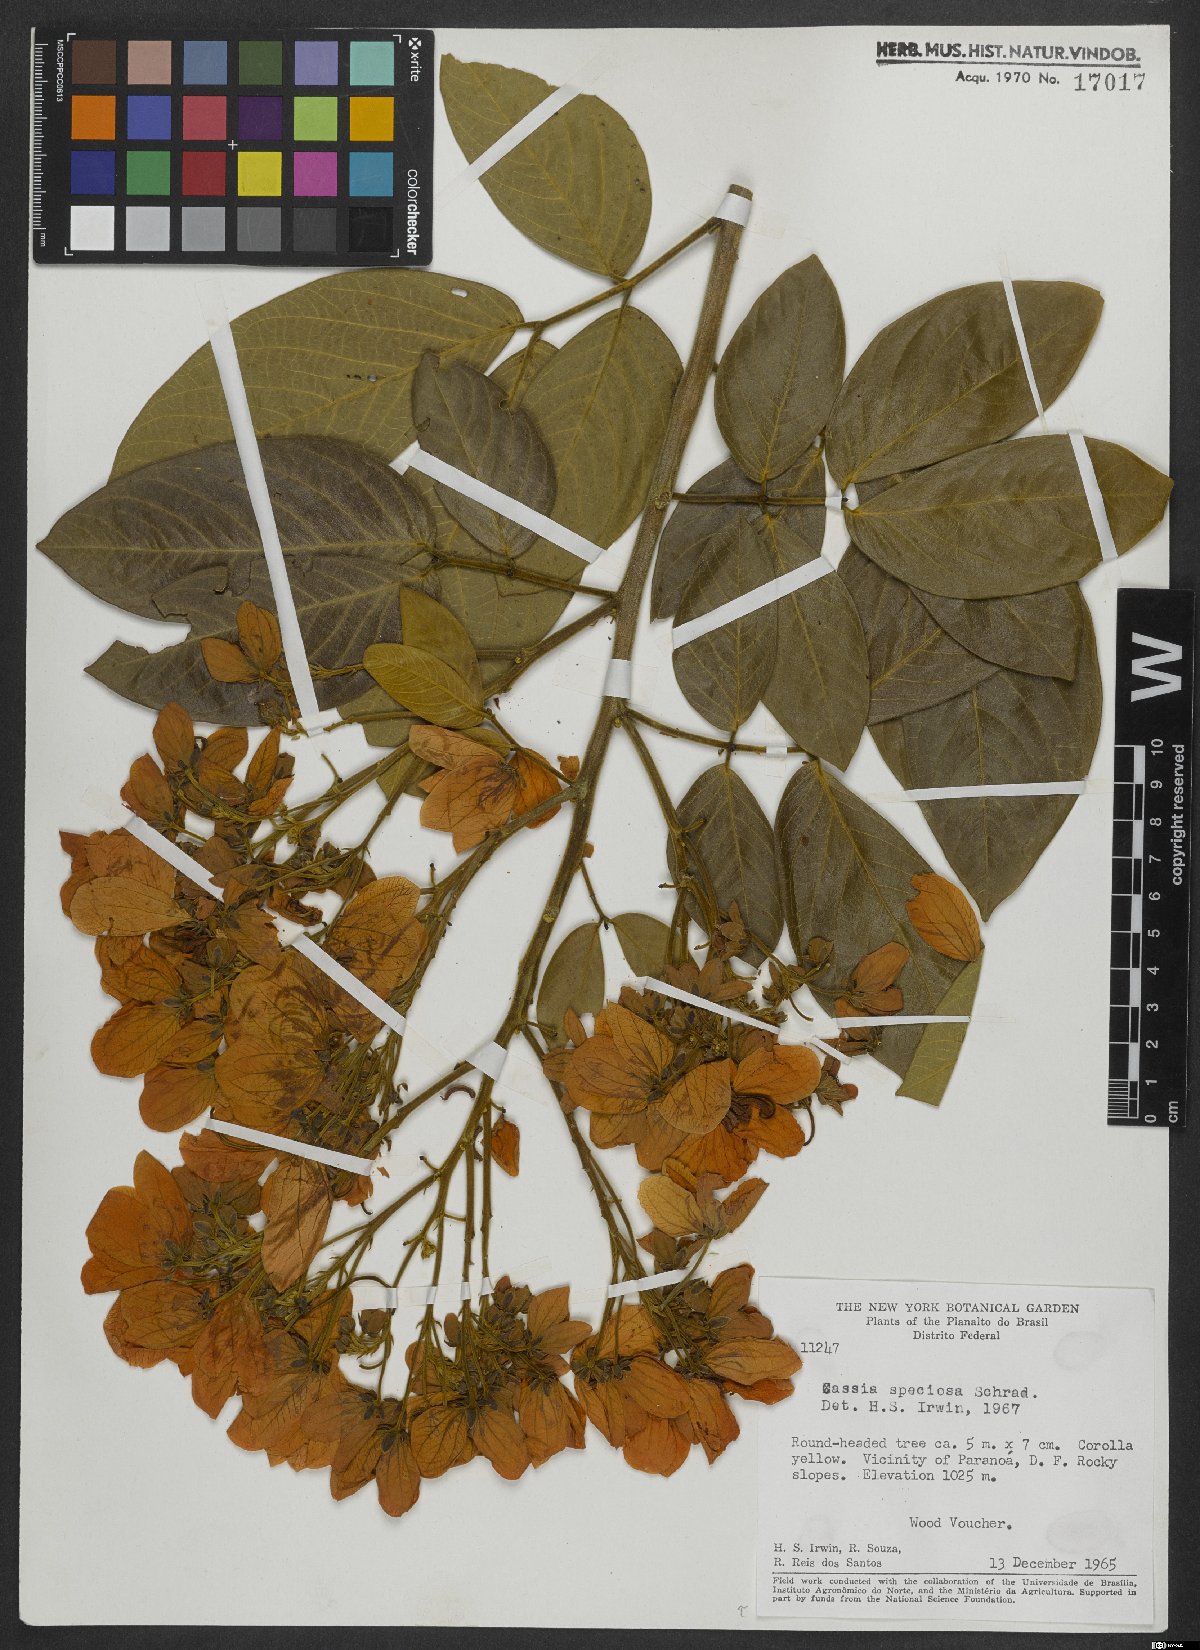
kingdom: Plantae
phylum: Tracheophyta
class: Magnoliopsida
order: Fabales
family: Fabaceae
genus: Senna
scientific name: Senna macranthera
